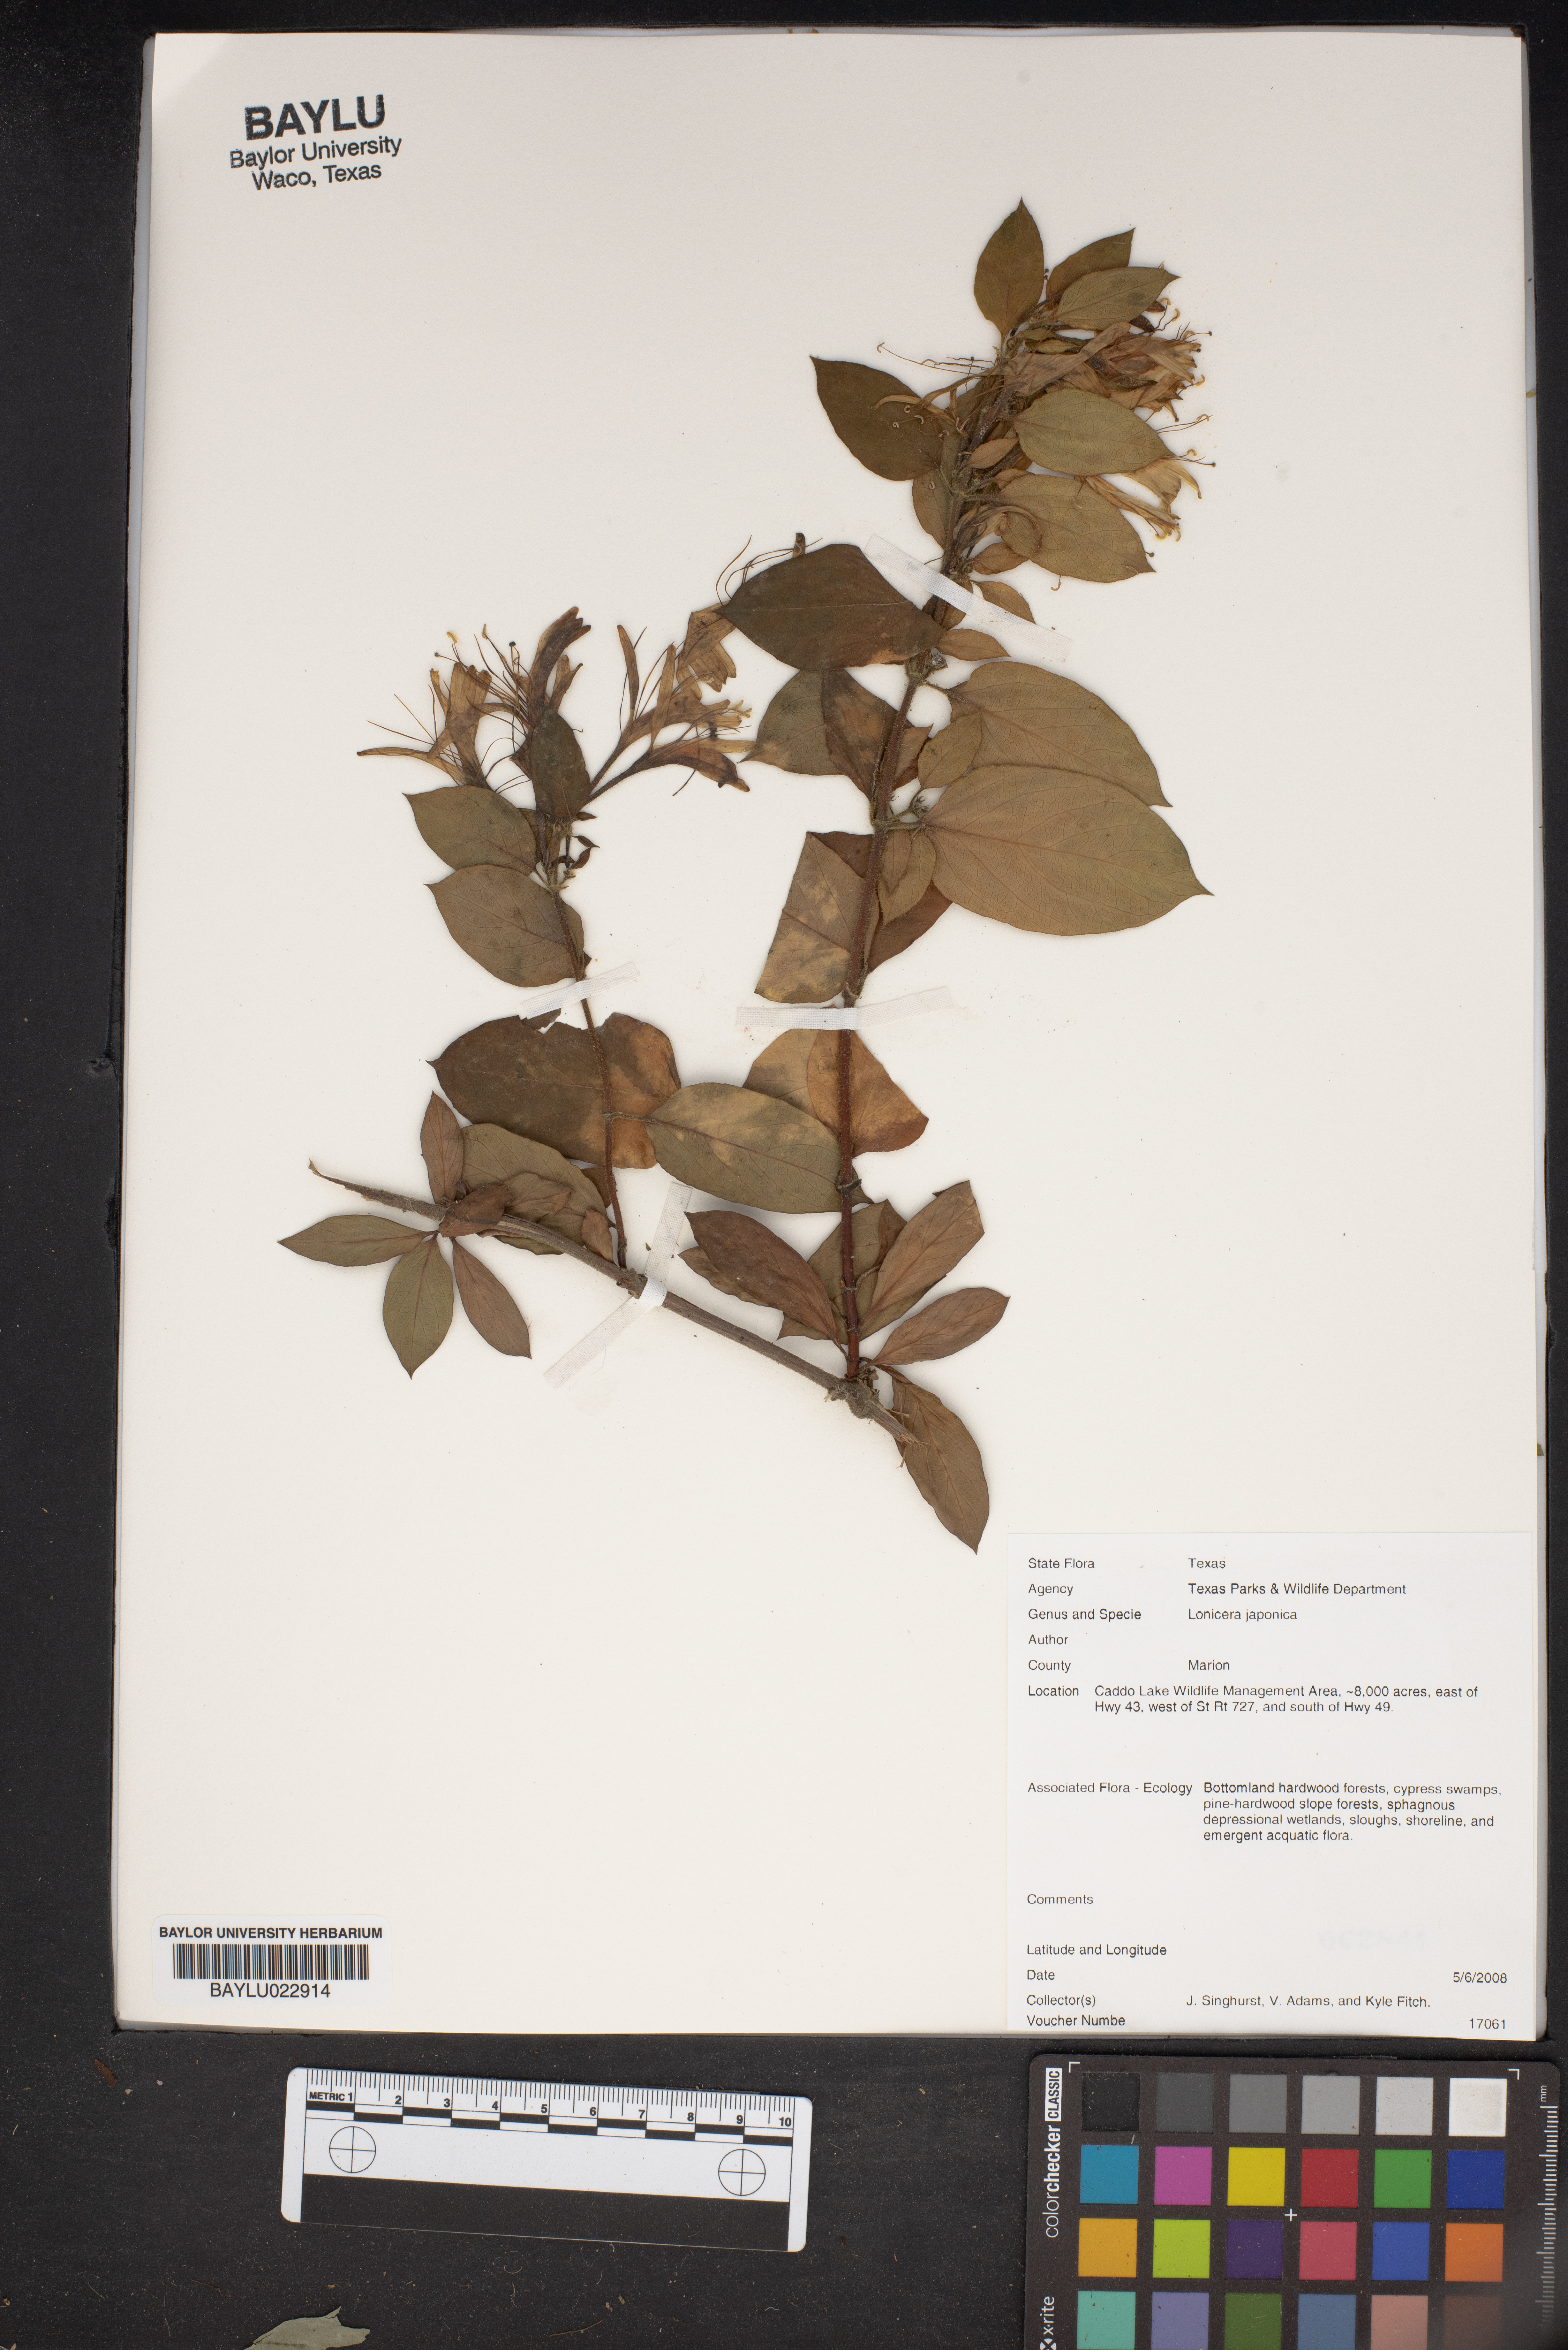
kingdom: Plantae
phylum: Tracheophyta
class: Magnoliopsida
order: Dipsacales
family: Caprifoliaceae
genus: Lonicera
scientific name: Lonicera japonica
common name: Japanese honeysuckle
